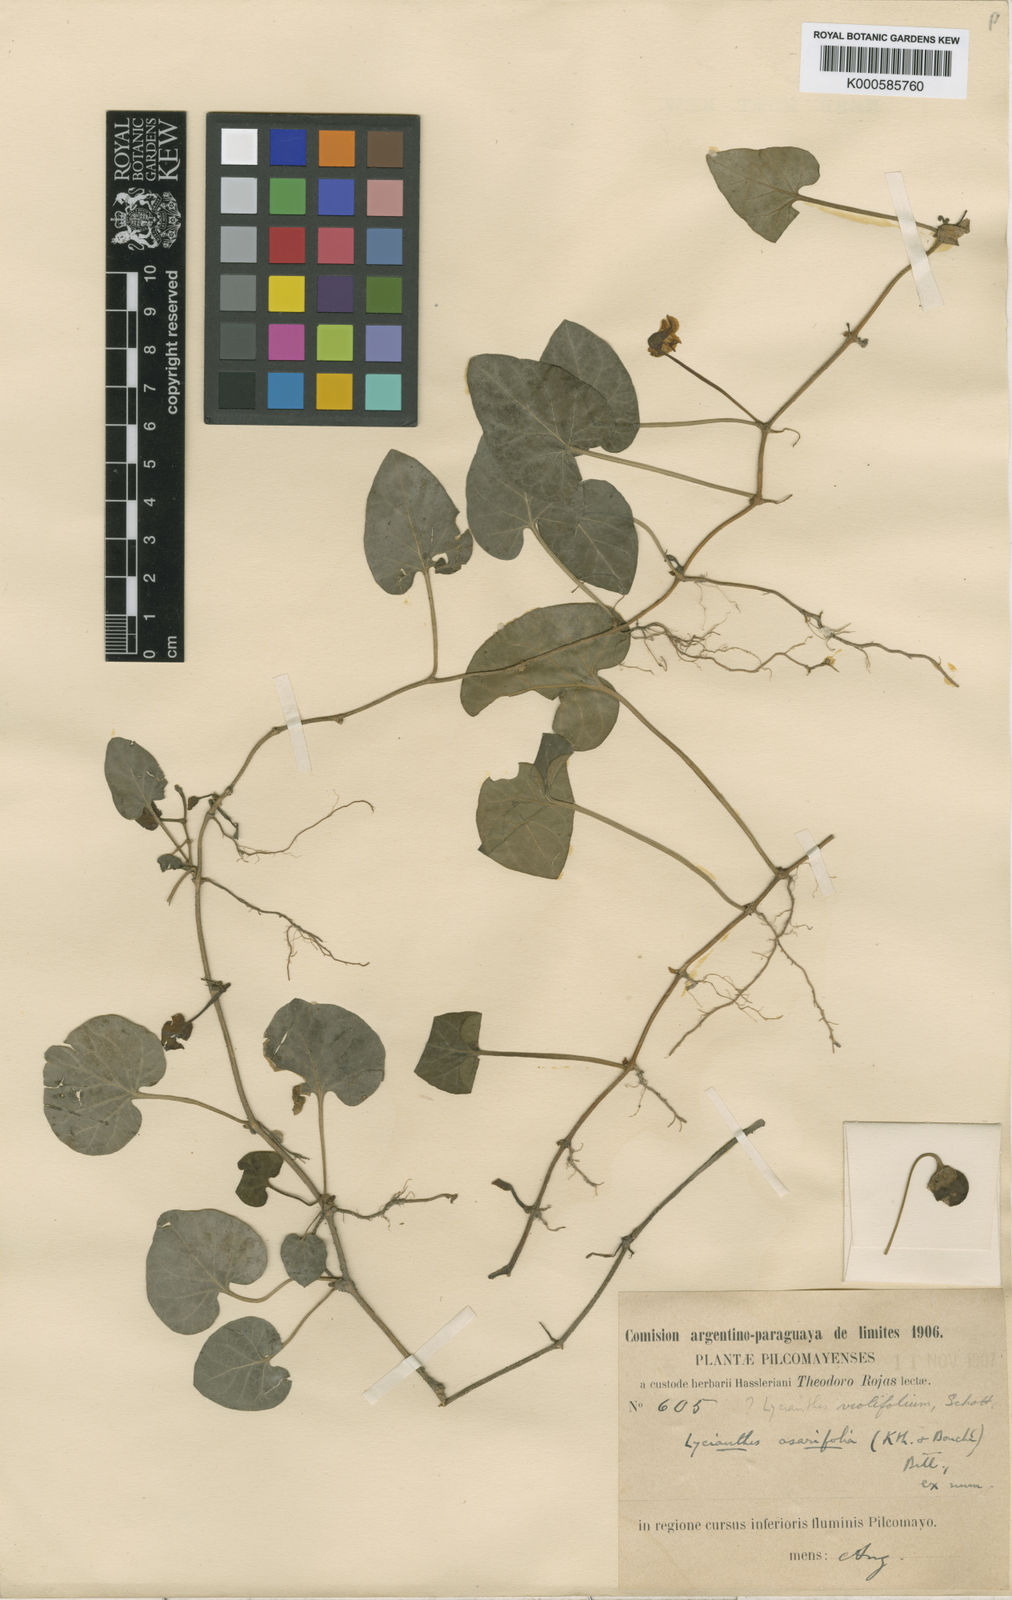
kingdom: Plantae
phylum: Tracheophyta
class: Magnoliopsida
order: Solanales
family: Solanaceae
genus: Lycianthes
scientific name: Lycianthes
